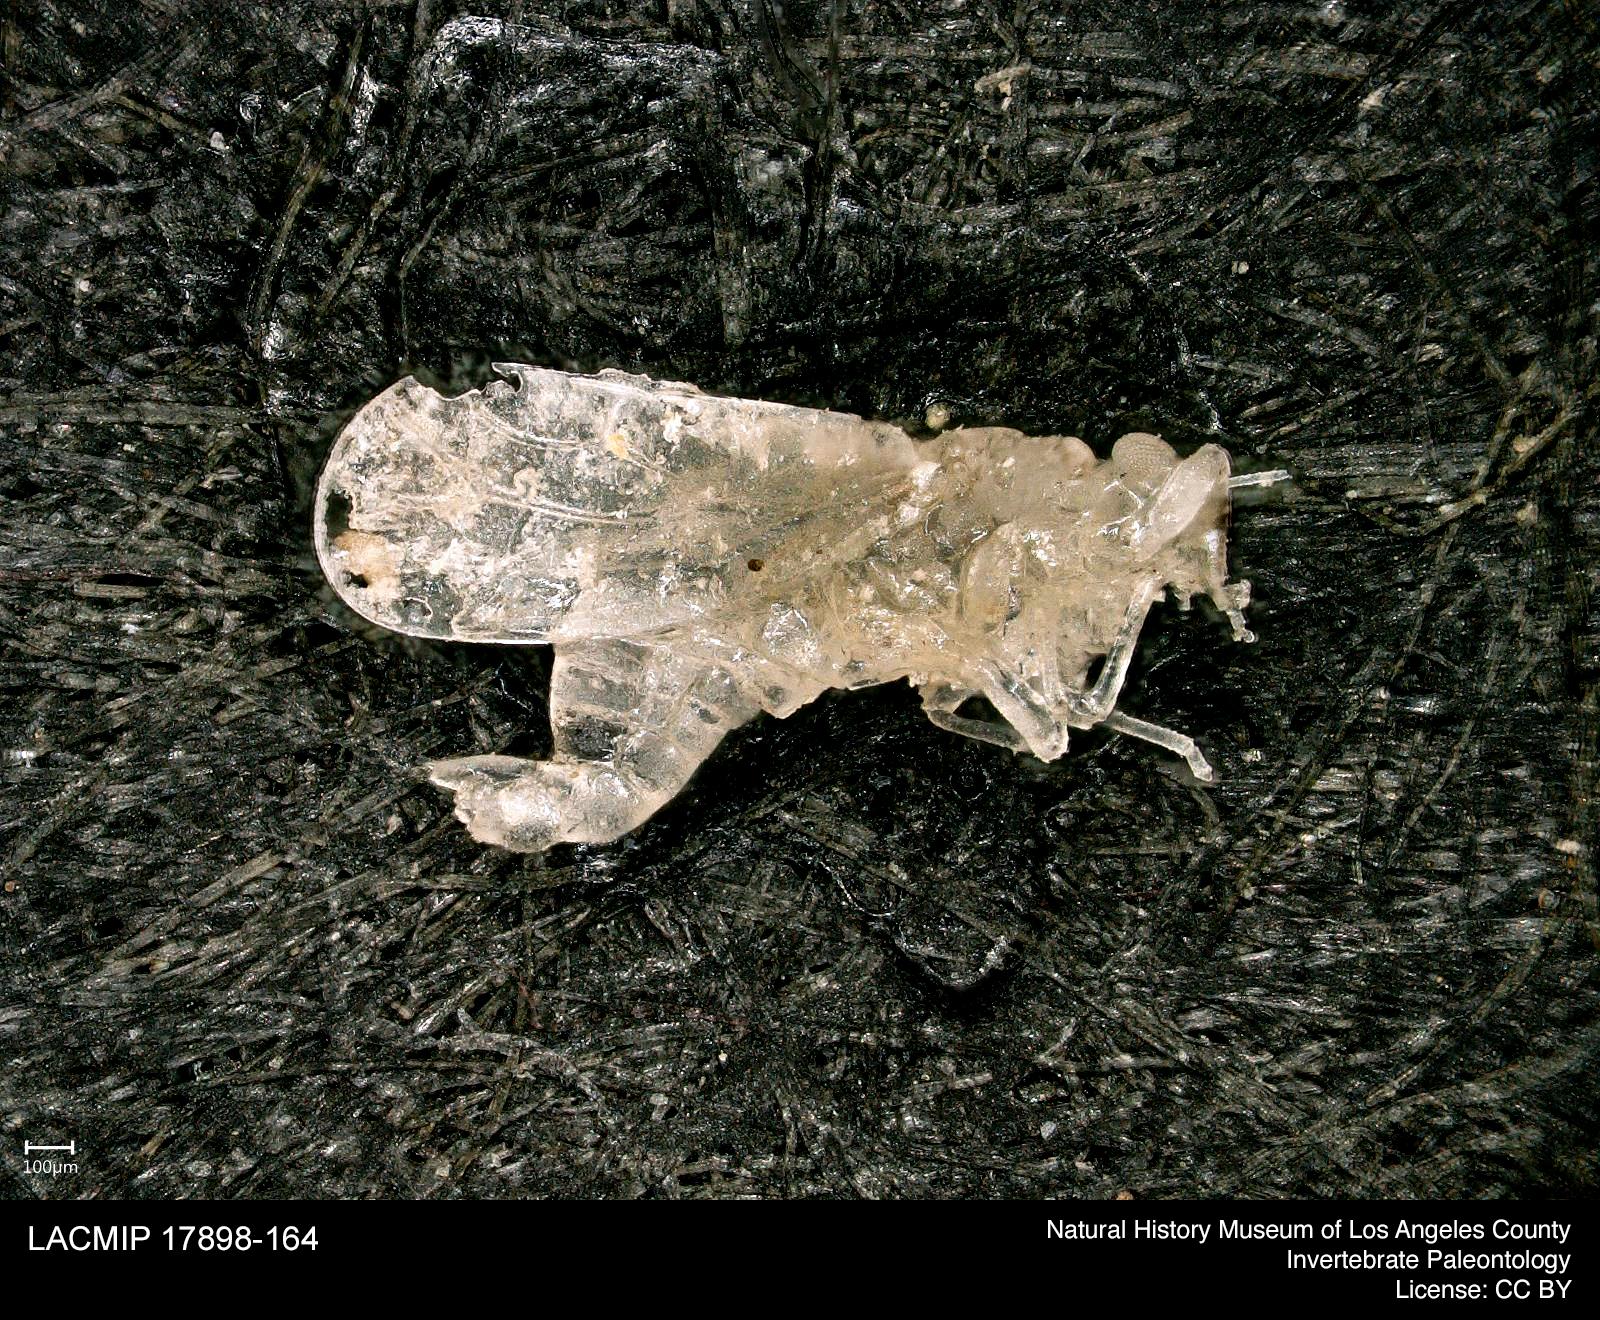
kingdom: Animalia
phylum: Arthropoda
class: Insecta
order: Diptera
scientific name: Diptera
